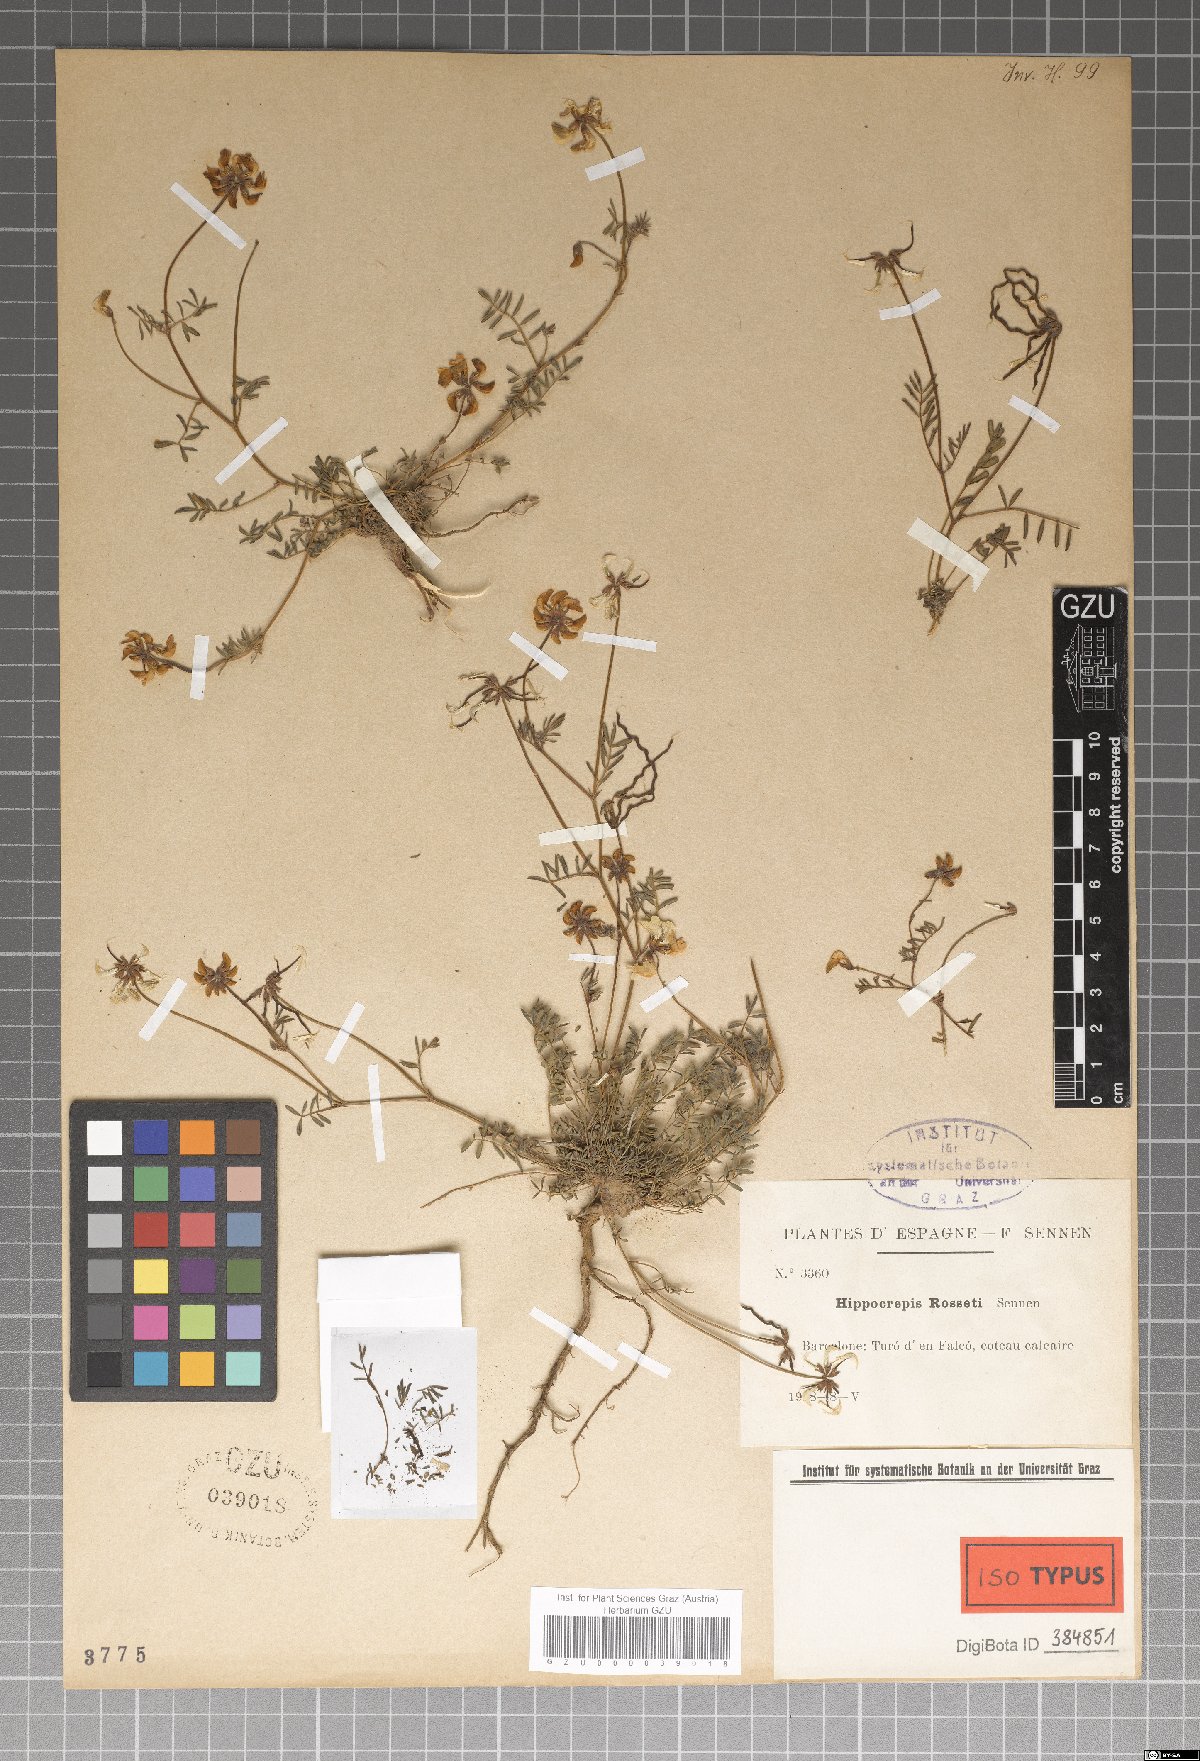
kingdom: Plantae
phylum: Tracheophyta
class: Magnoliopsida
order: Fabales
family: Fabaceae
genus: Hippocrepis
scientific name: Hippocrepis scorpioides
